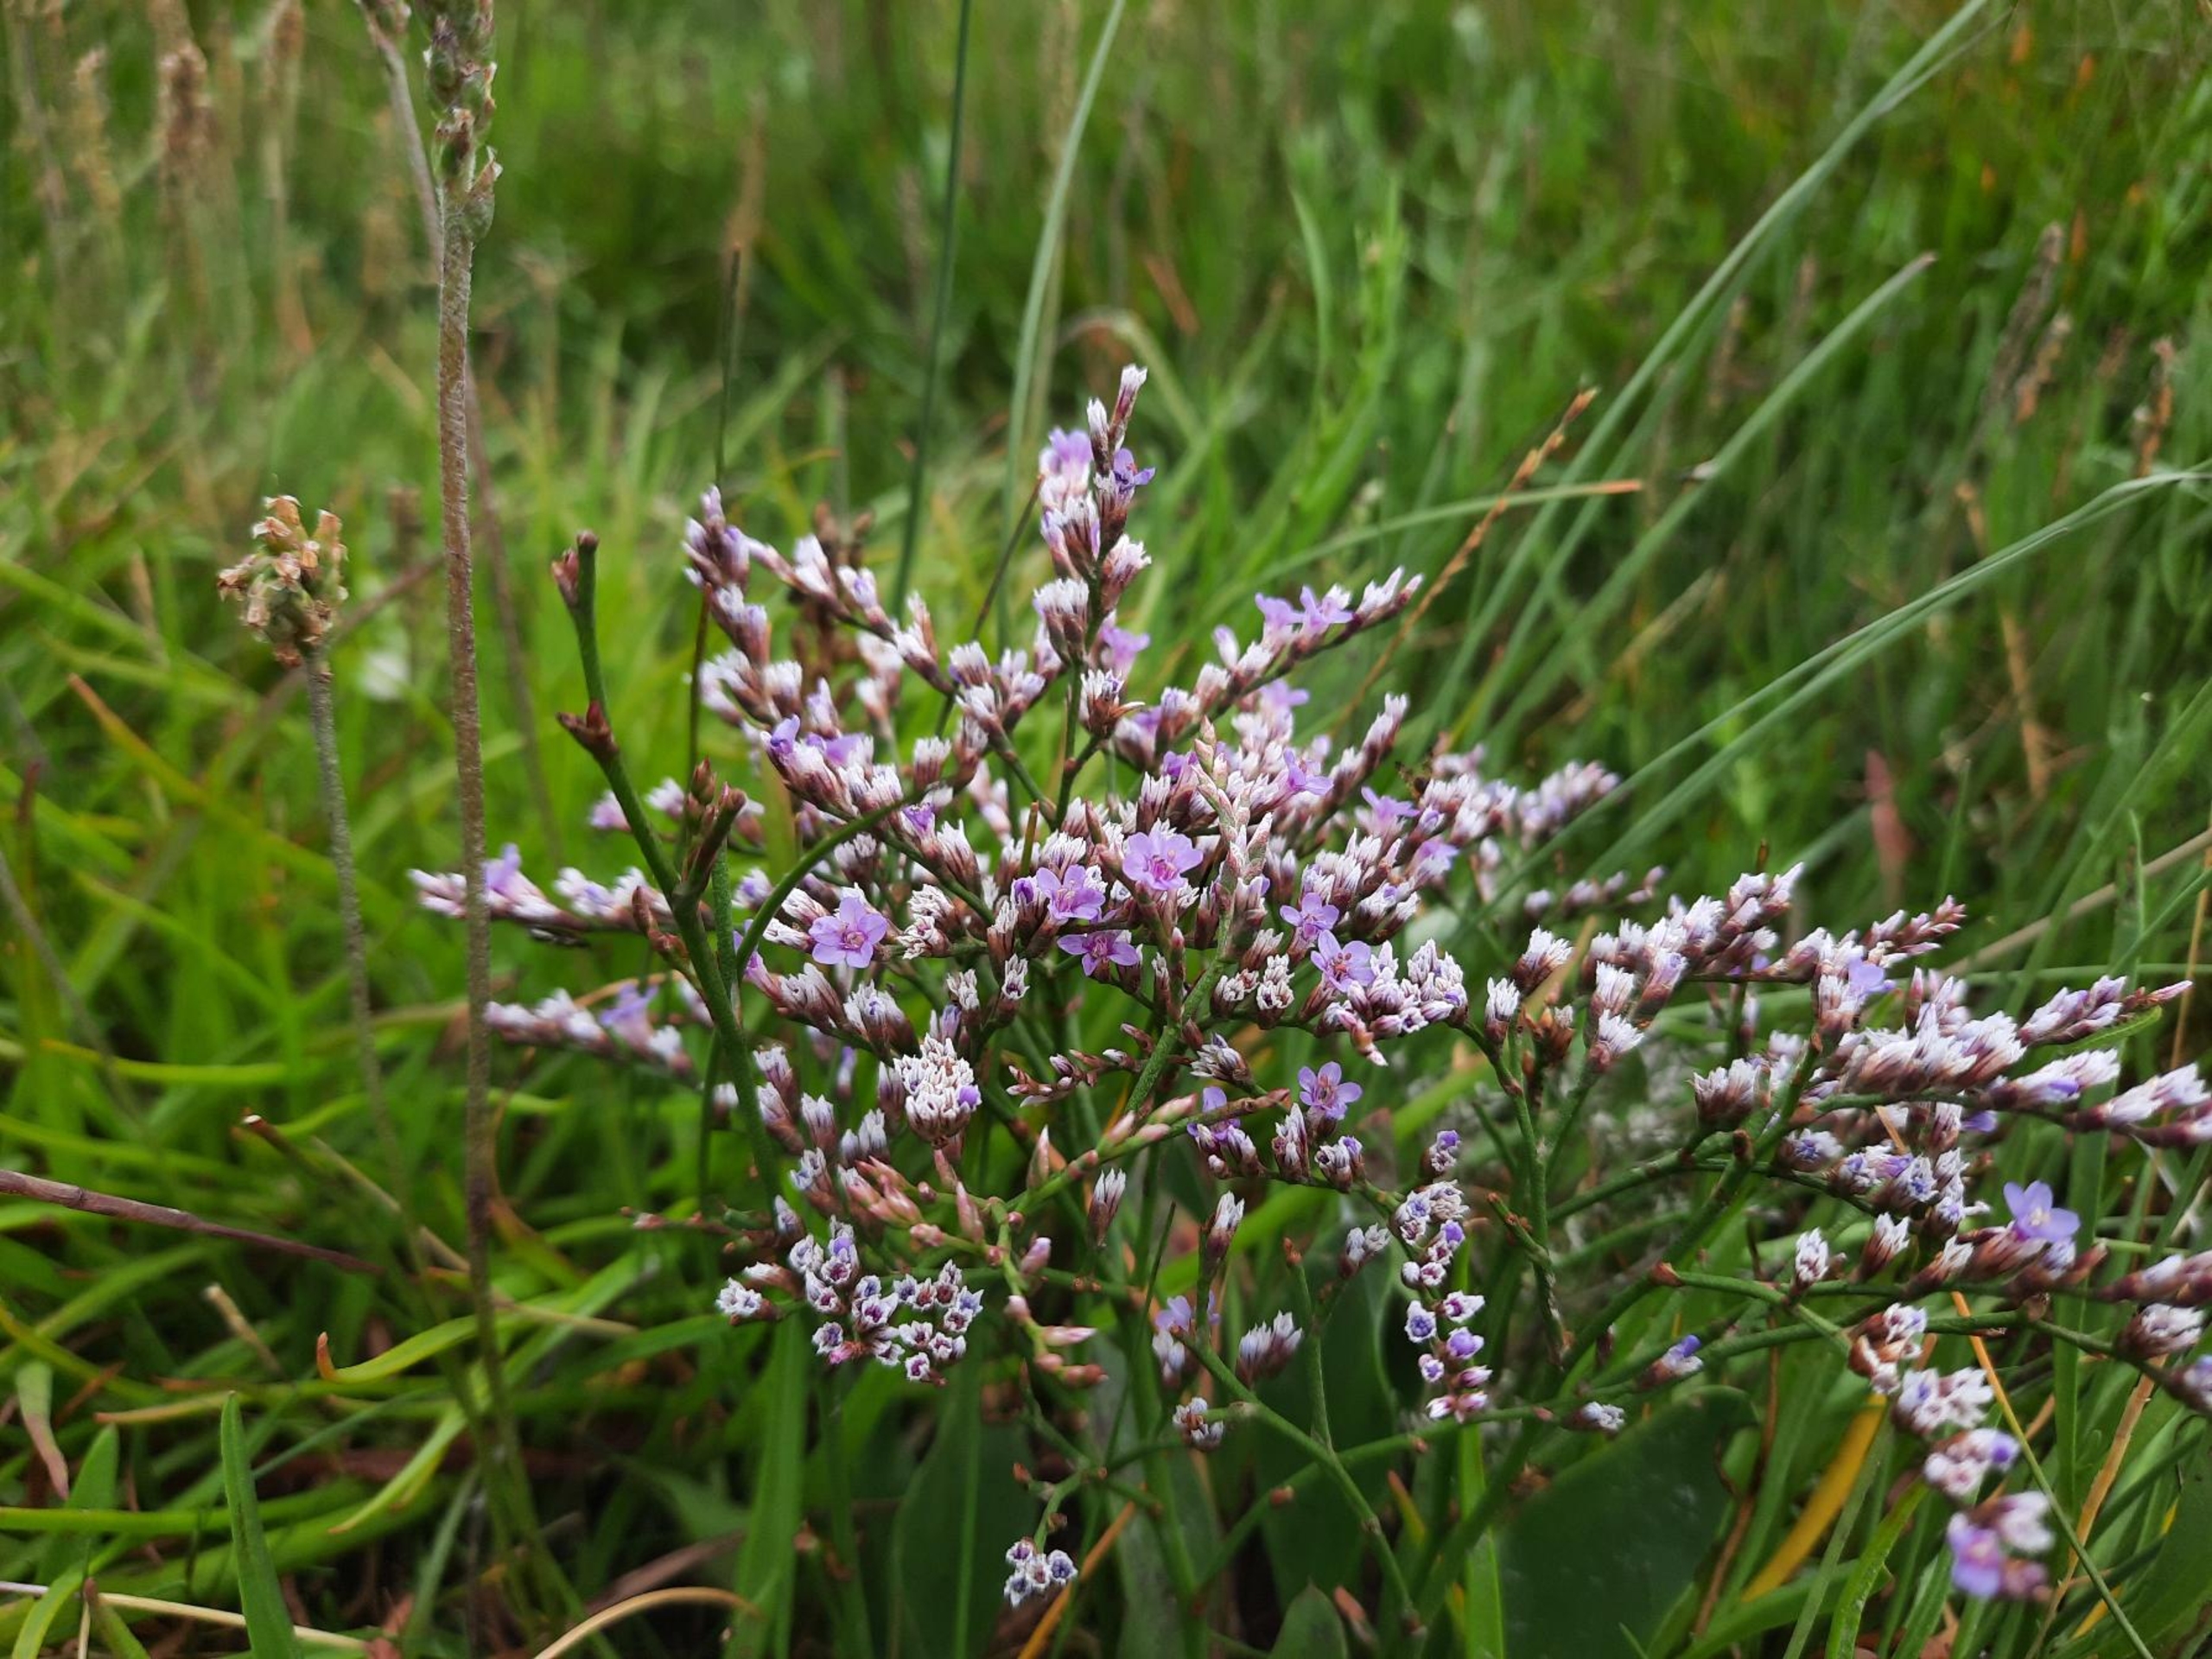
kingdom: Plantae
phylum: Tracheophyta
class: Magnoliopsida
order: Caryophyllales
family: Plumbaginaceae
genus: Limonium
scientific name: Limonium humile
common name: Lav hindebæger
